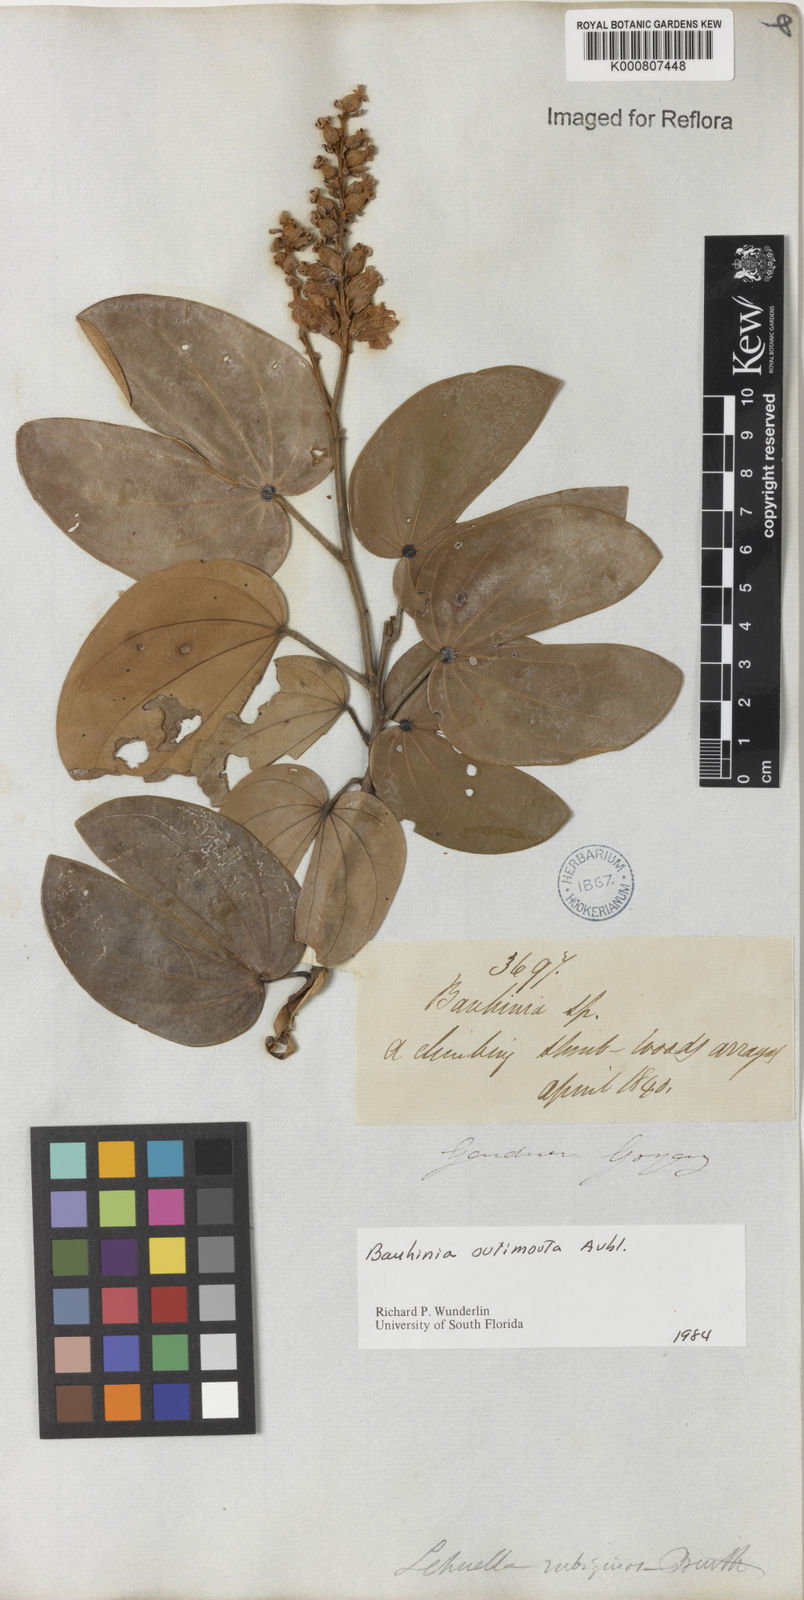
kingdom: Plantae
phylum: Tracheophyta
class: Magnoliopsida
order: Fabales
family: Fabaceae
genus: Schnella
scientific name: Schnella outimouta
